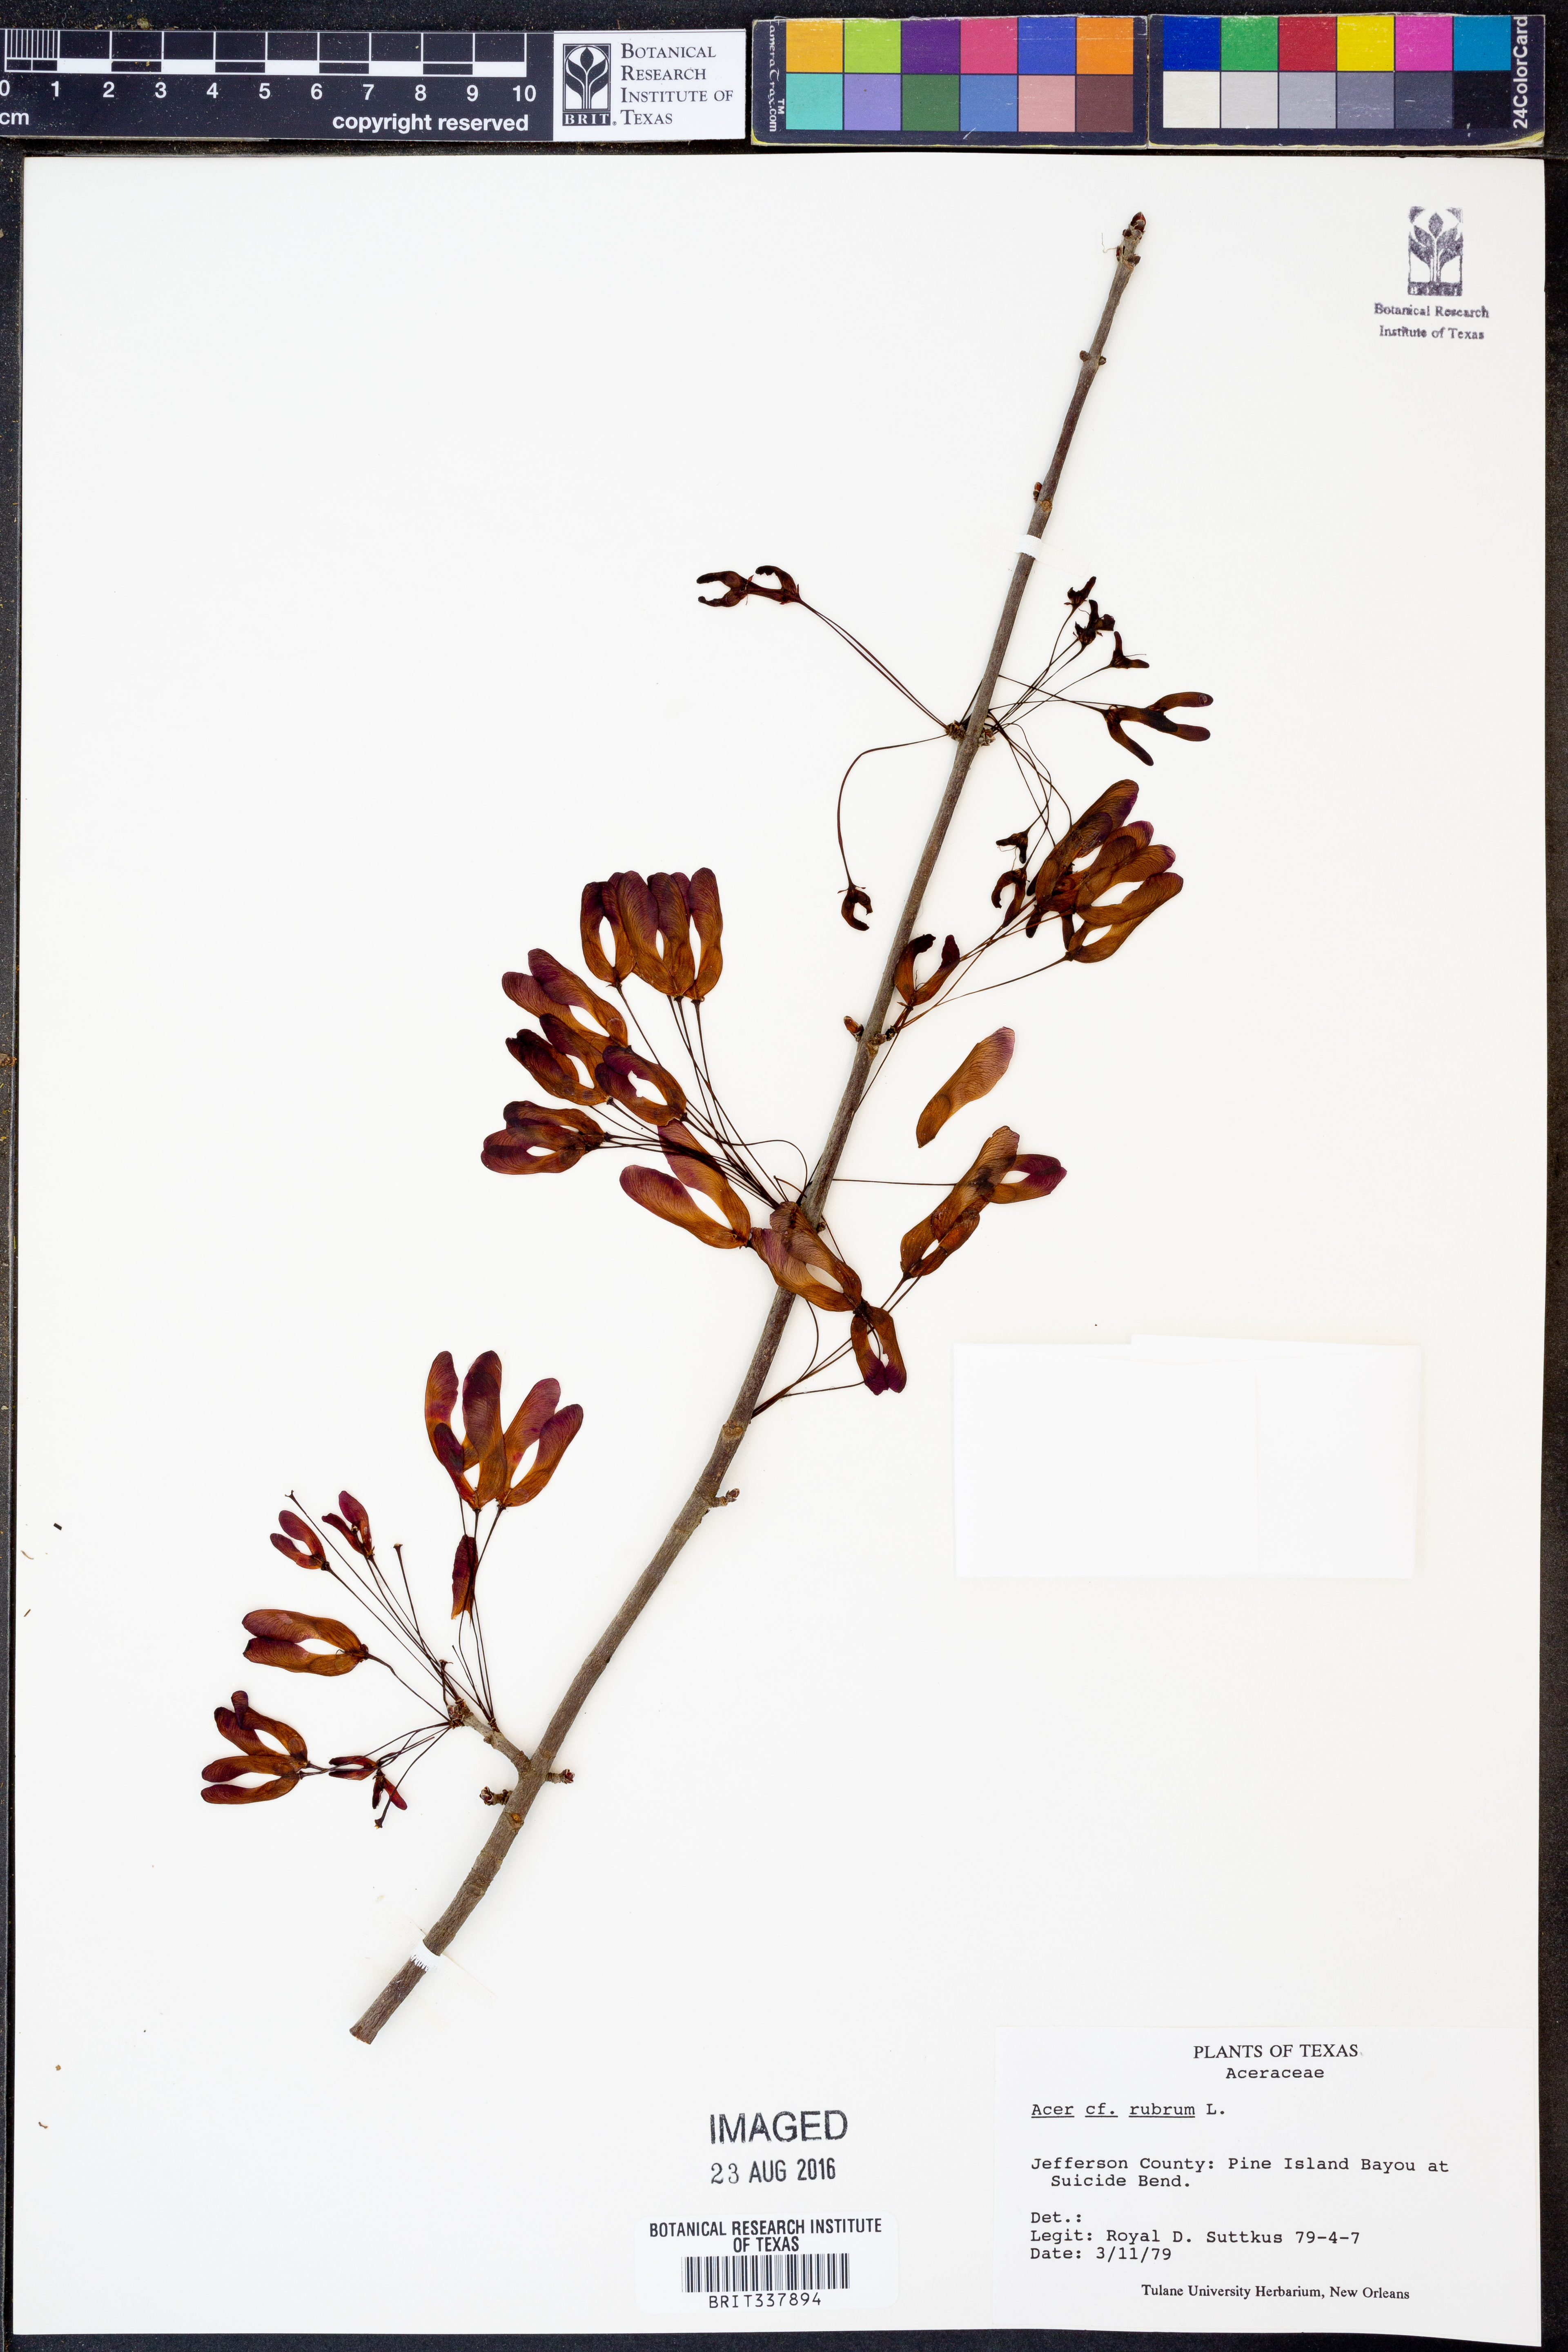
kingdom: Plantae
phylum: Tracheophyta
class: Magnoliopsida
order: Sapindales
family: Sapindaceae
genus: Acer
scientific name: Acer rubrum
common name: Red maple
